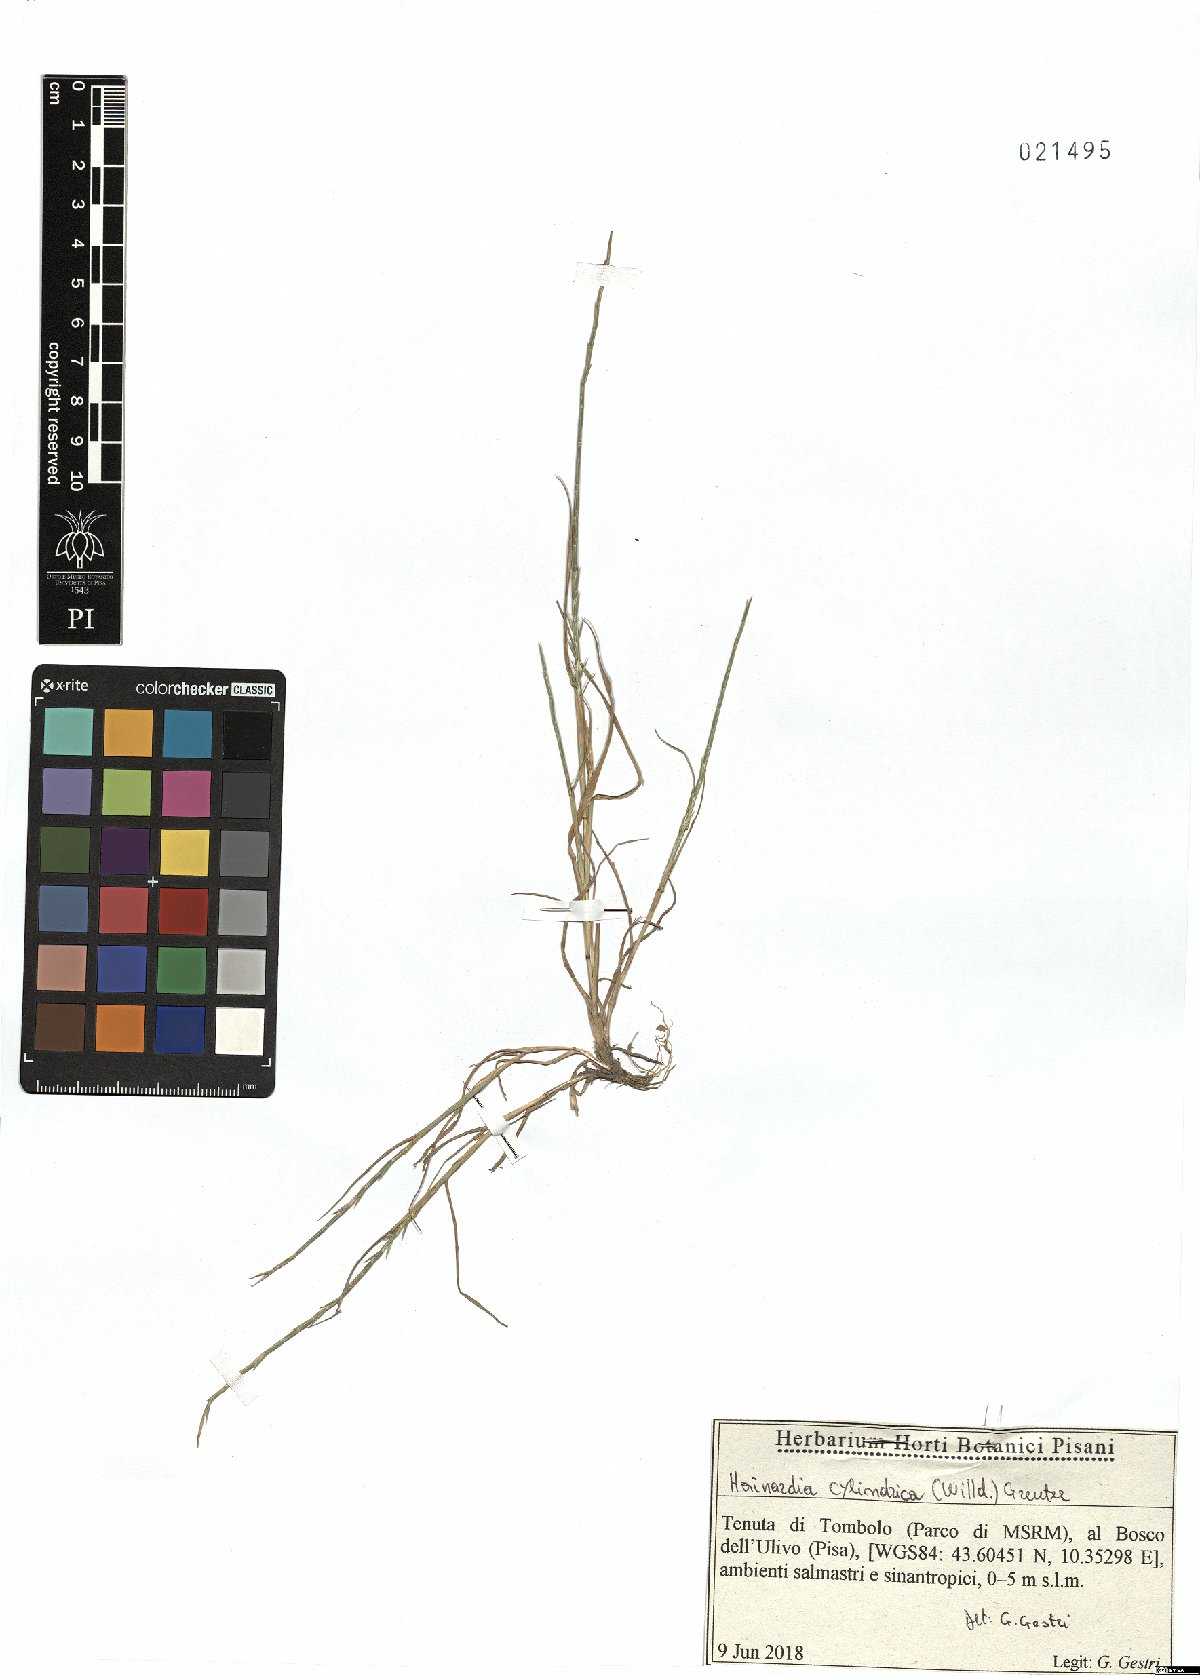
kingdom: Plantae
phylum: Tracheophyta
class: Liliopsida
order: Poales
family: Poaceae
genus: Parapholis
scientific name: Parapholis cylindrica
